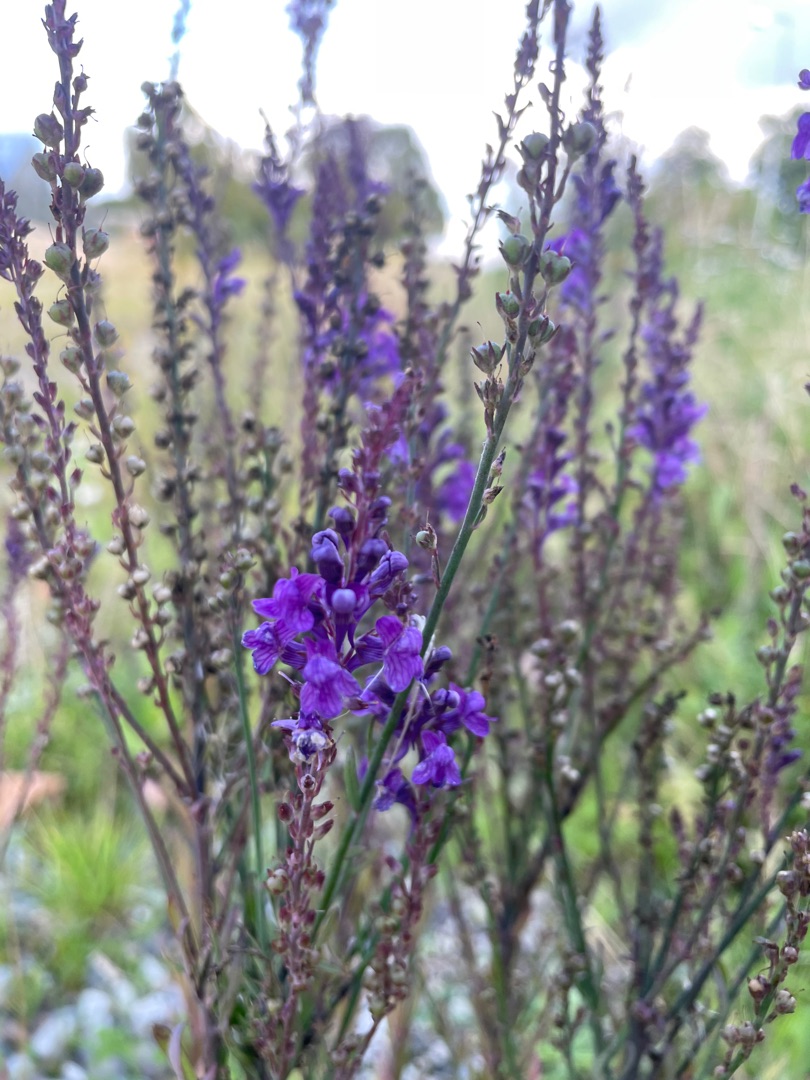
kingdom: Plantae
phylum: Tracheophyta
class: Magnoliopsida
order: Lamiales
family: Plantaginaceae
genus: Linaria
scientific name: Linaria purpurea
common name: Purpur-torskemund
